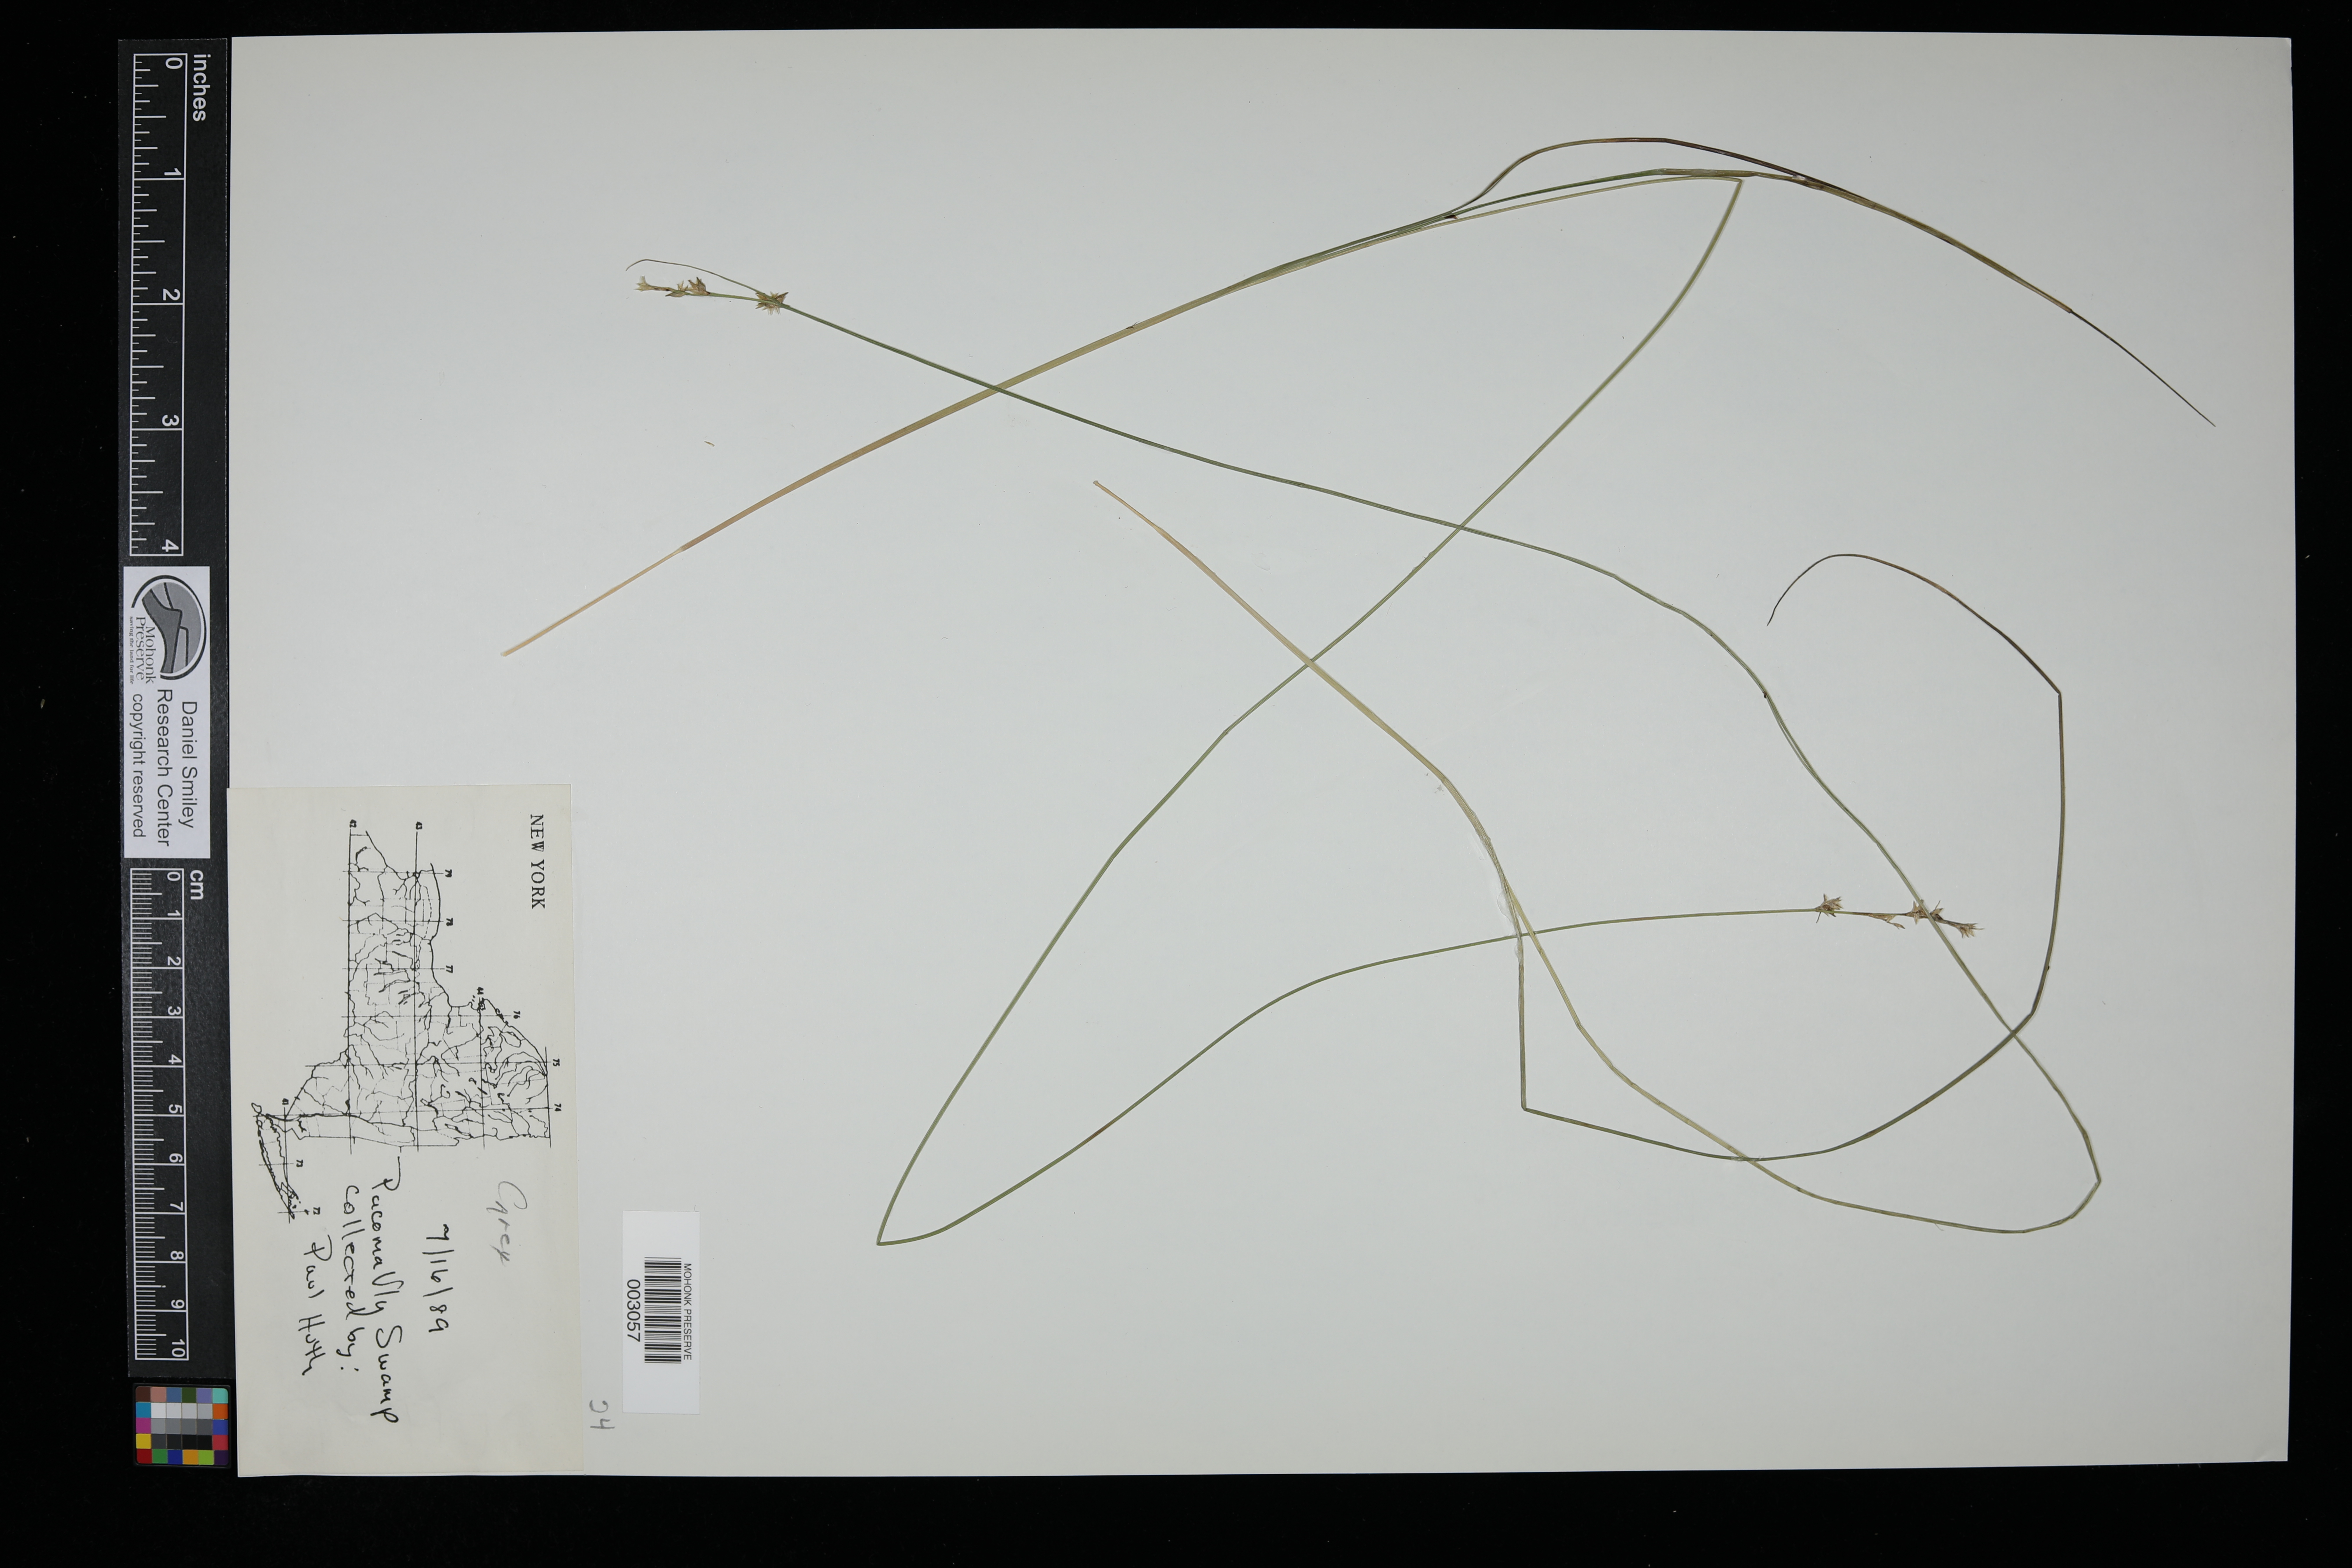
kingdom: Plantae
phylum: Tracheophyta
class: Liliopsida
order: Poales
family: Cyperaceae
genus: Carex
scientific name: Carex
